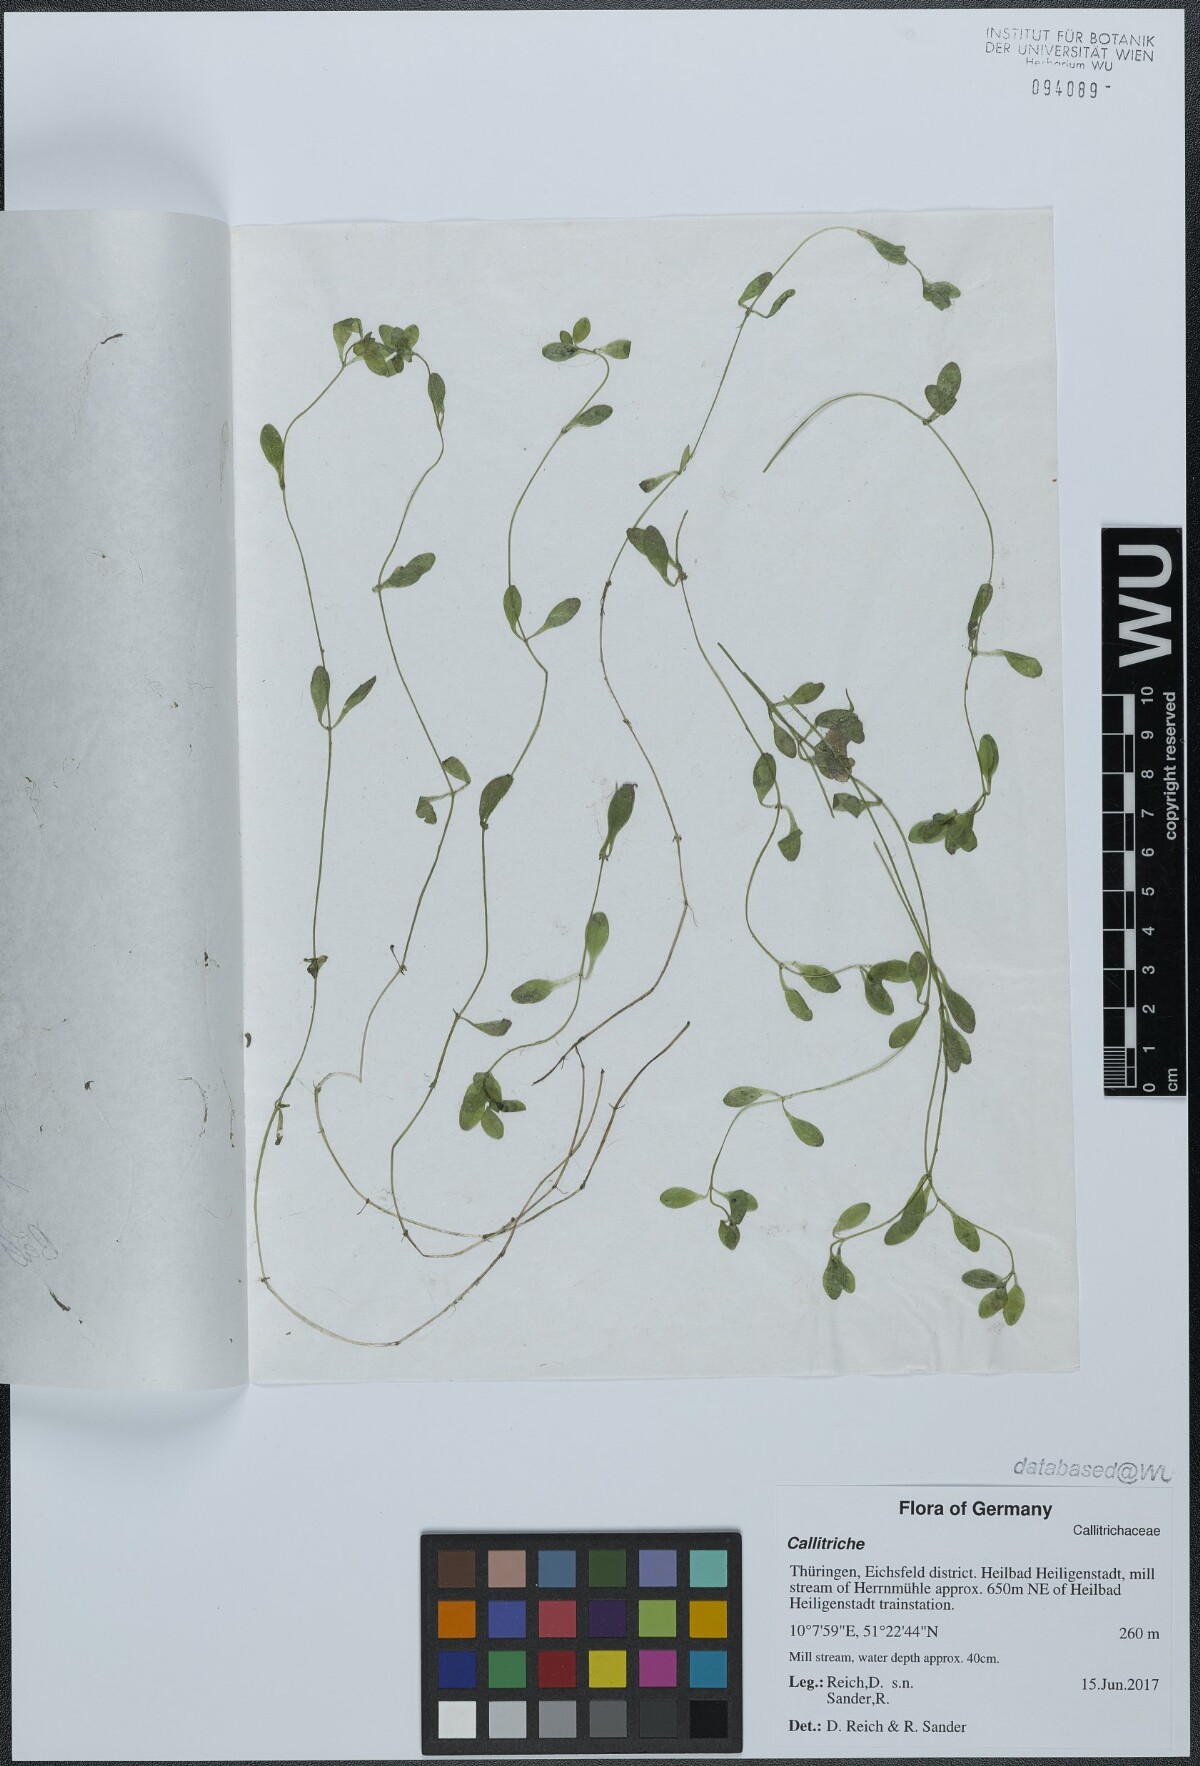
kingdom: Plantae
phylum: Tracheophyta
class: Magnoliopsida
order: Lamiales
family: Plantaginaceae
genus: Callitriche
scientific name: Callitriche
